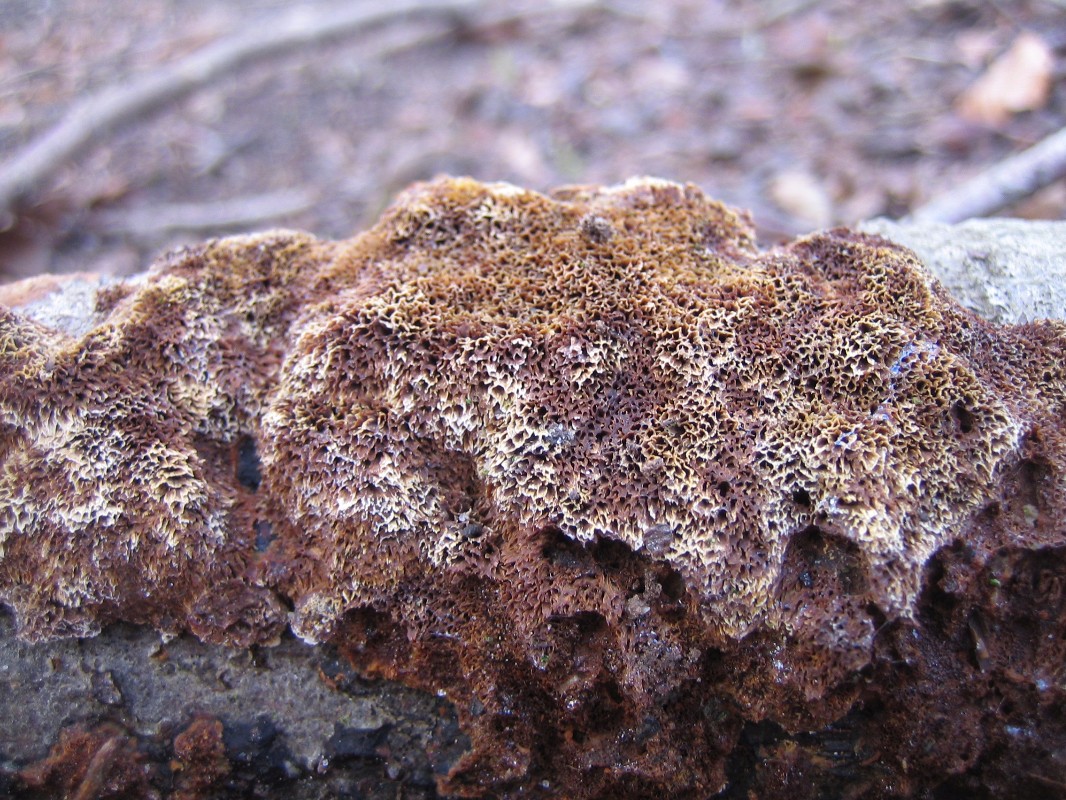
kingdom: Fungi
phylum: Basidiomycota
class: Agaricomycetes
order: Hymenochaetales
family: Hymenochaetaceae
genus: Mensularia
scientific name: Mensularia nodulosa
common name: bøge-spejlporesvamp
